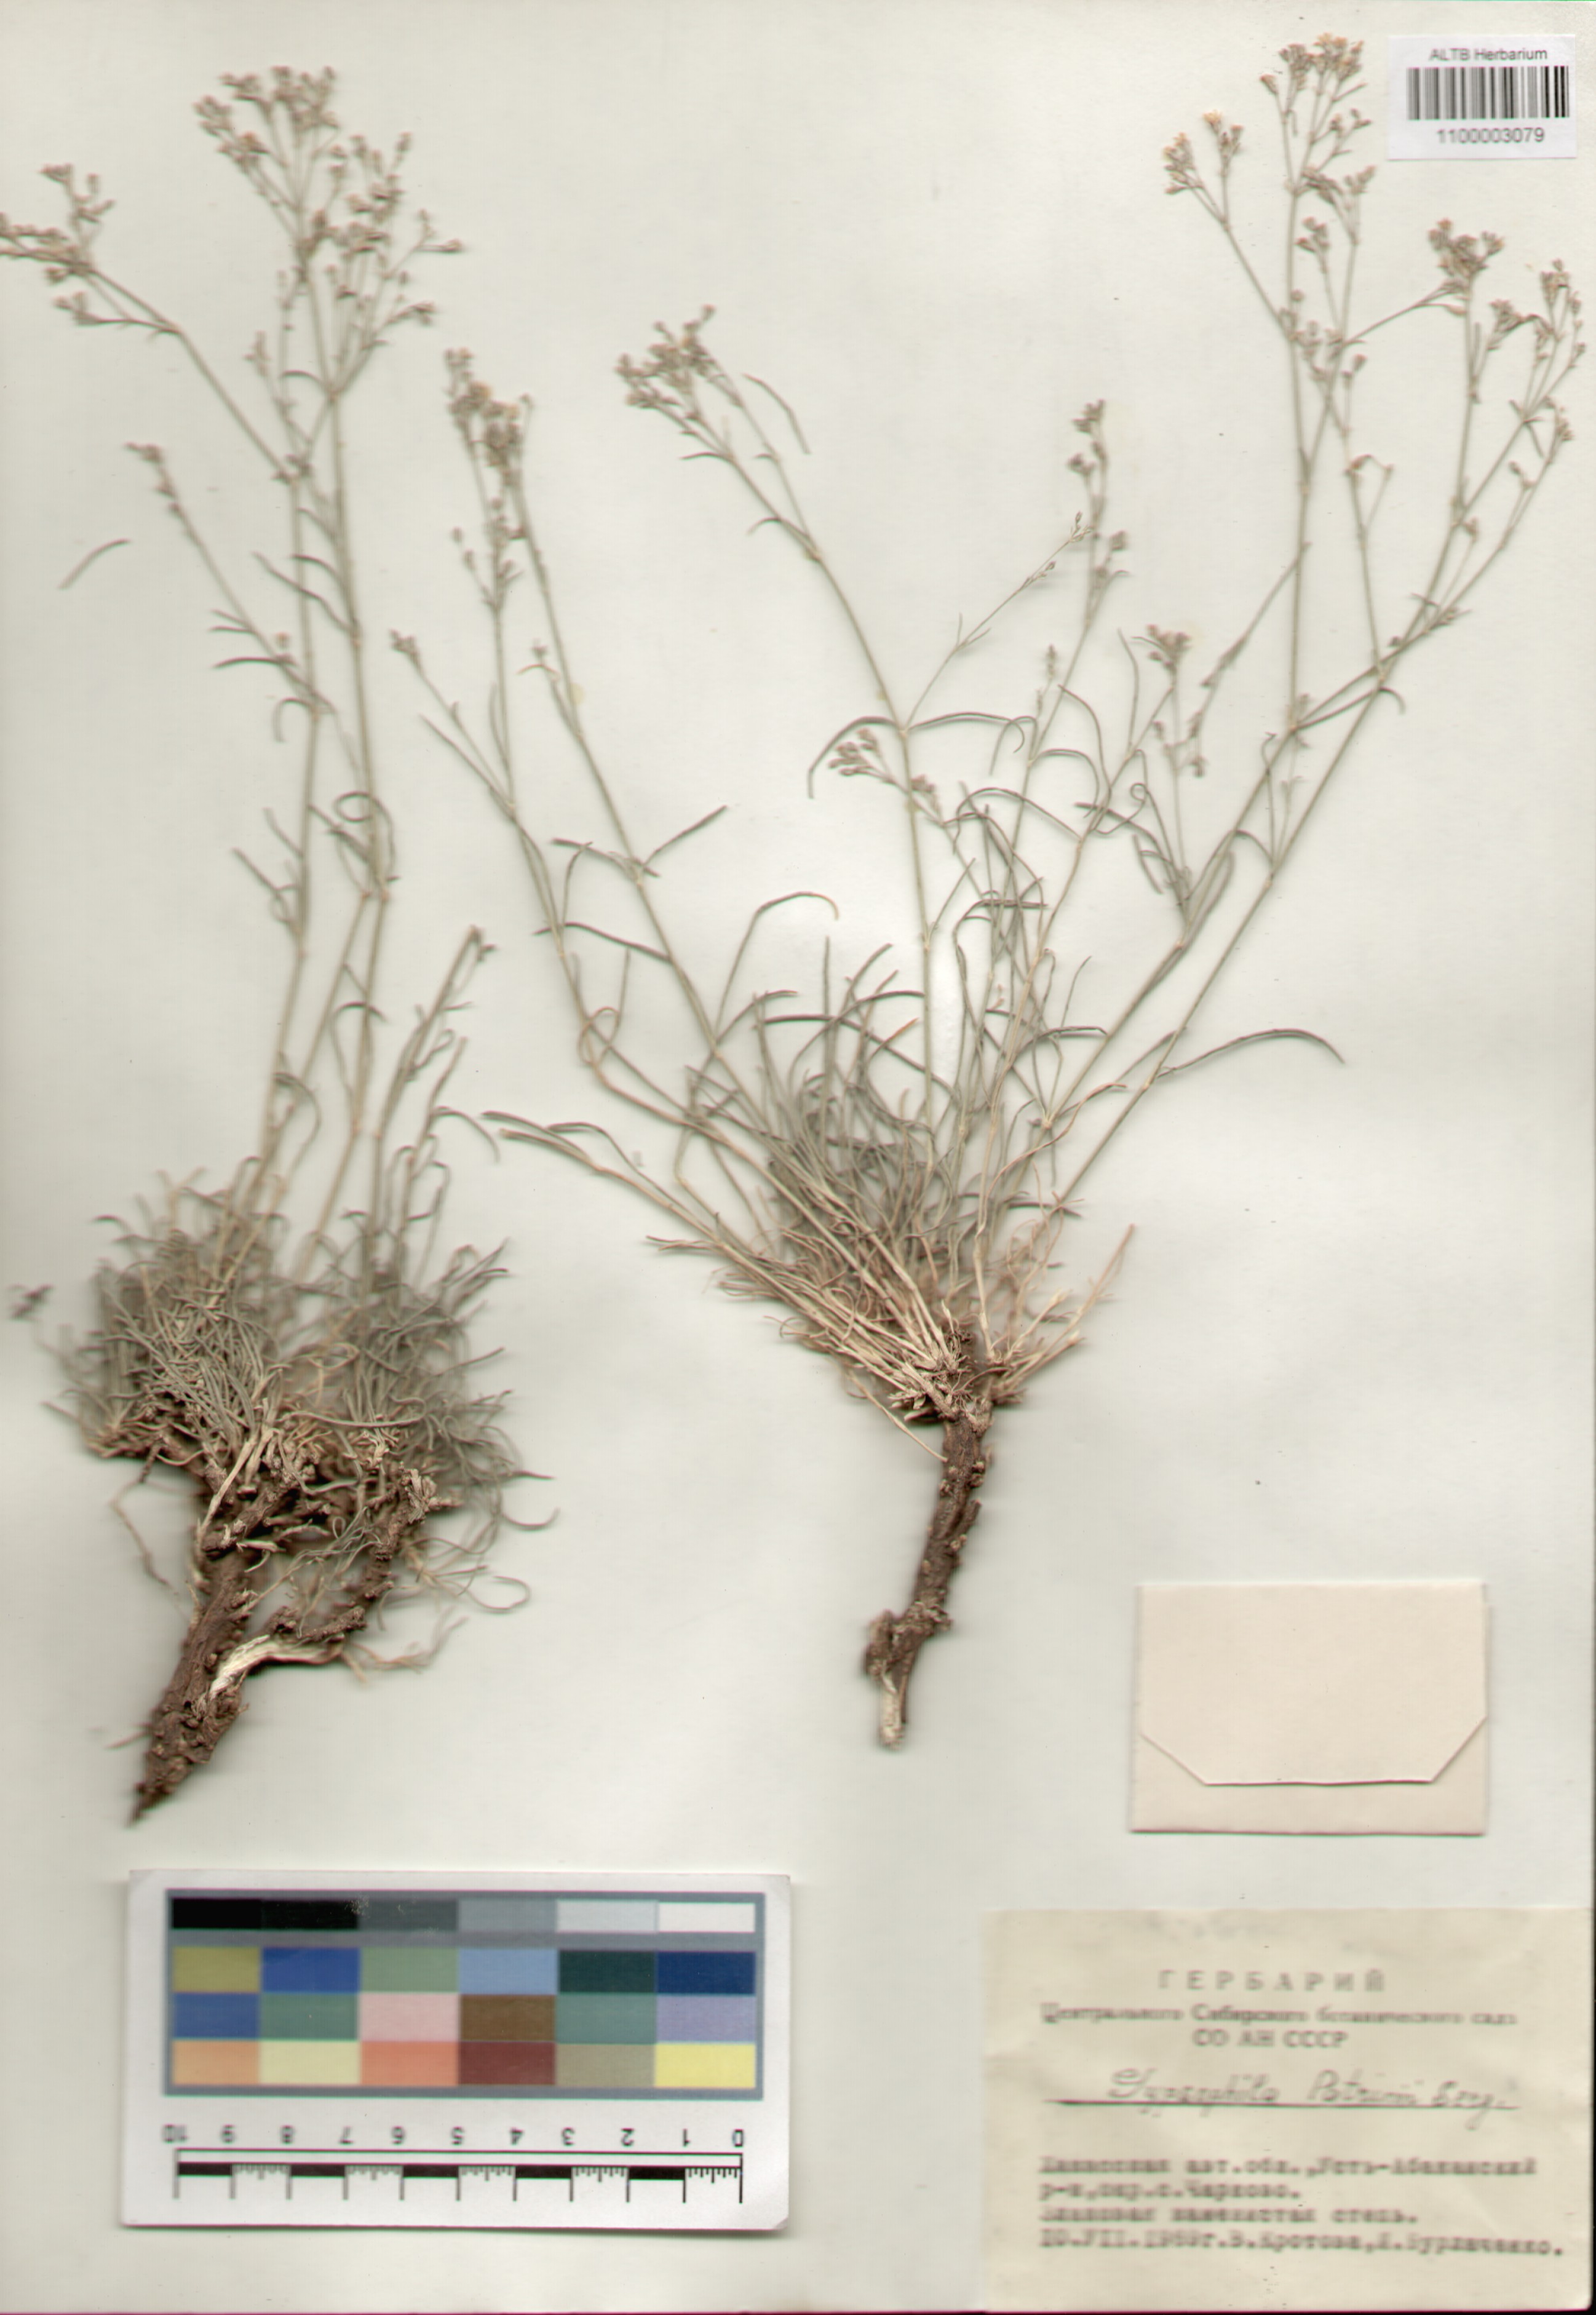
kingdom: Plantae
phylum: Tracheophyta
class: Magnoliopsida
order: Caryophyllales
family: Caryophyllaceae
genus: Gypsophila
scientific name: Gypsophila patrinii
